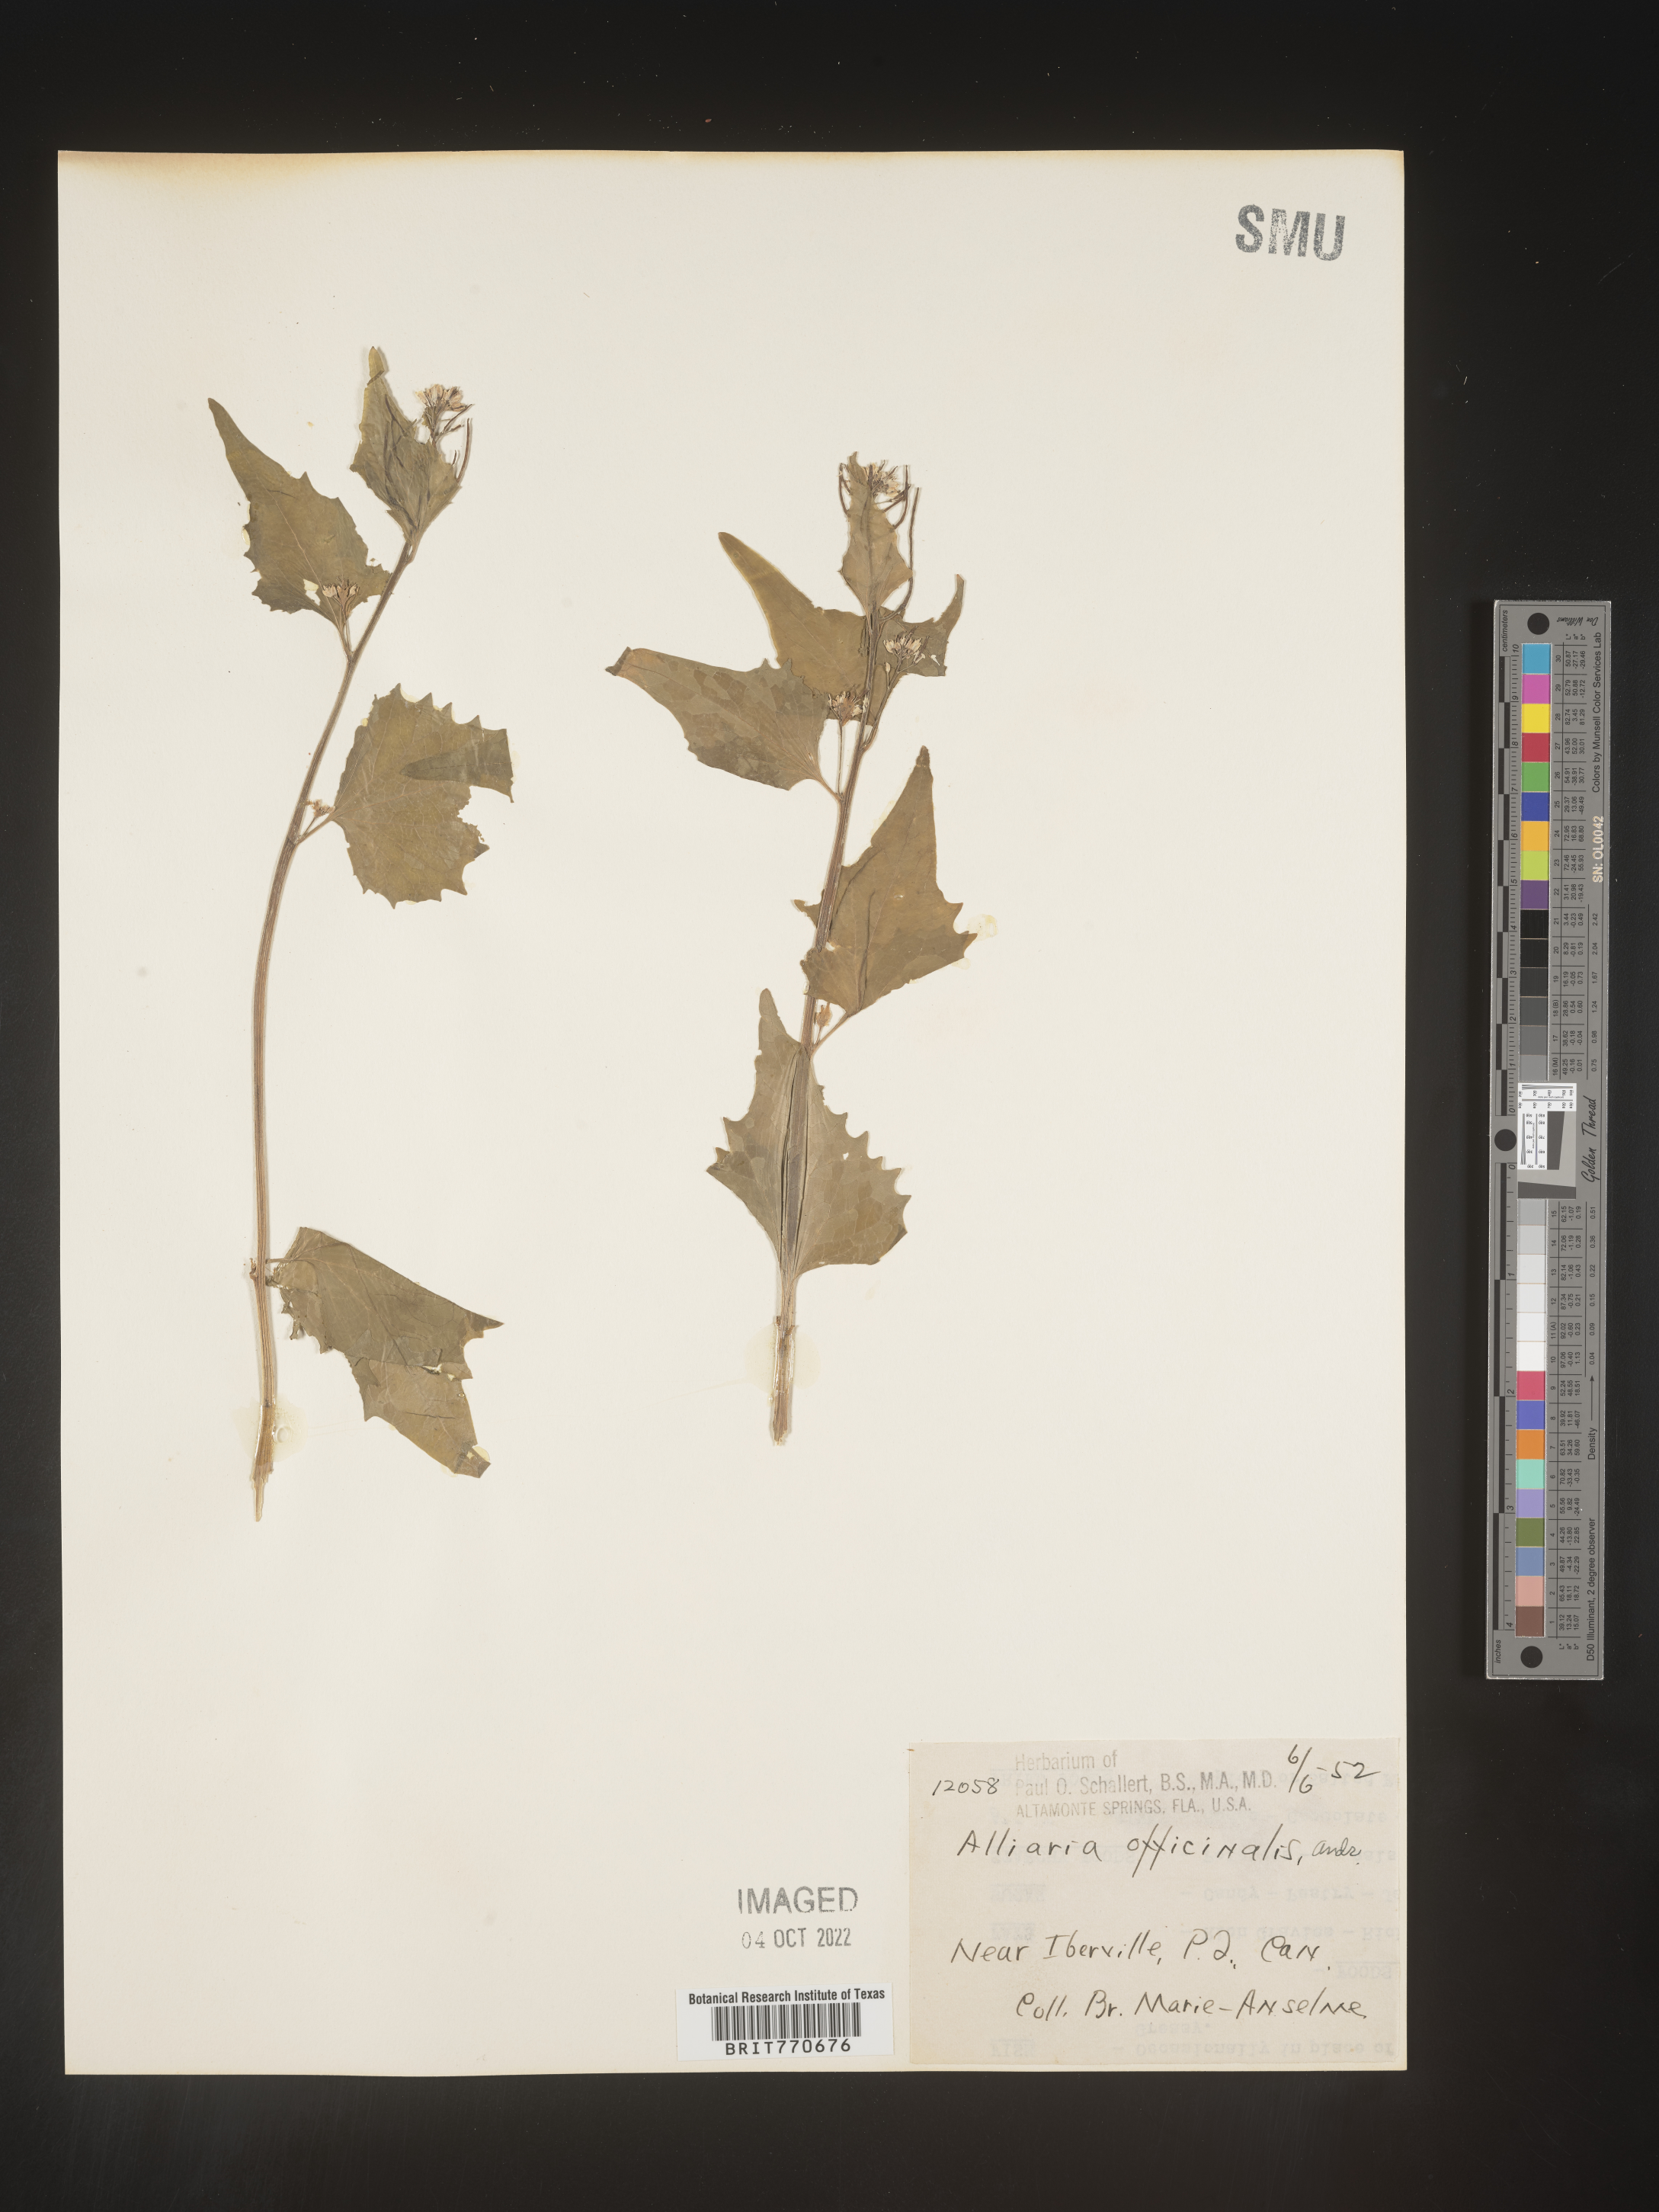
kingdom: Plantae
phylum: Tracheophyta
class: Magnoliopsida
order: Brassicales
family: Brassicaceae
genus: Alliaria
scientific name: Alliaria
